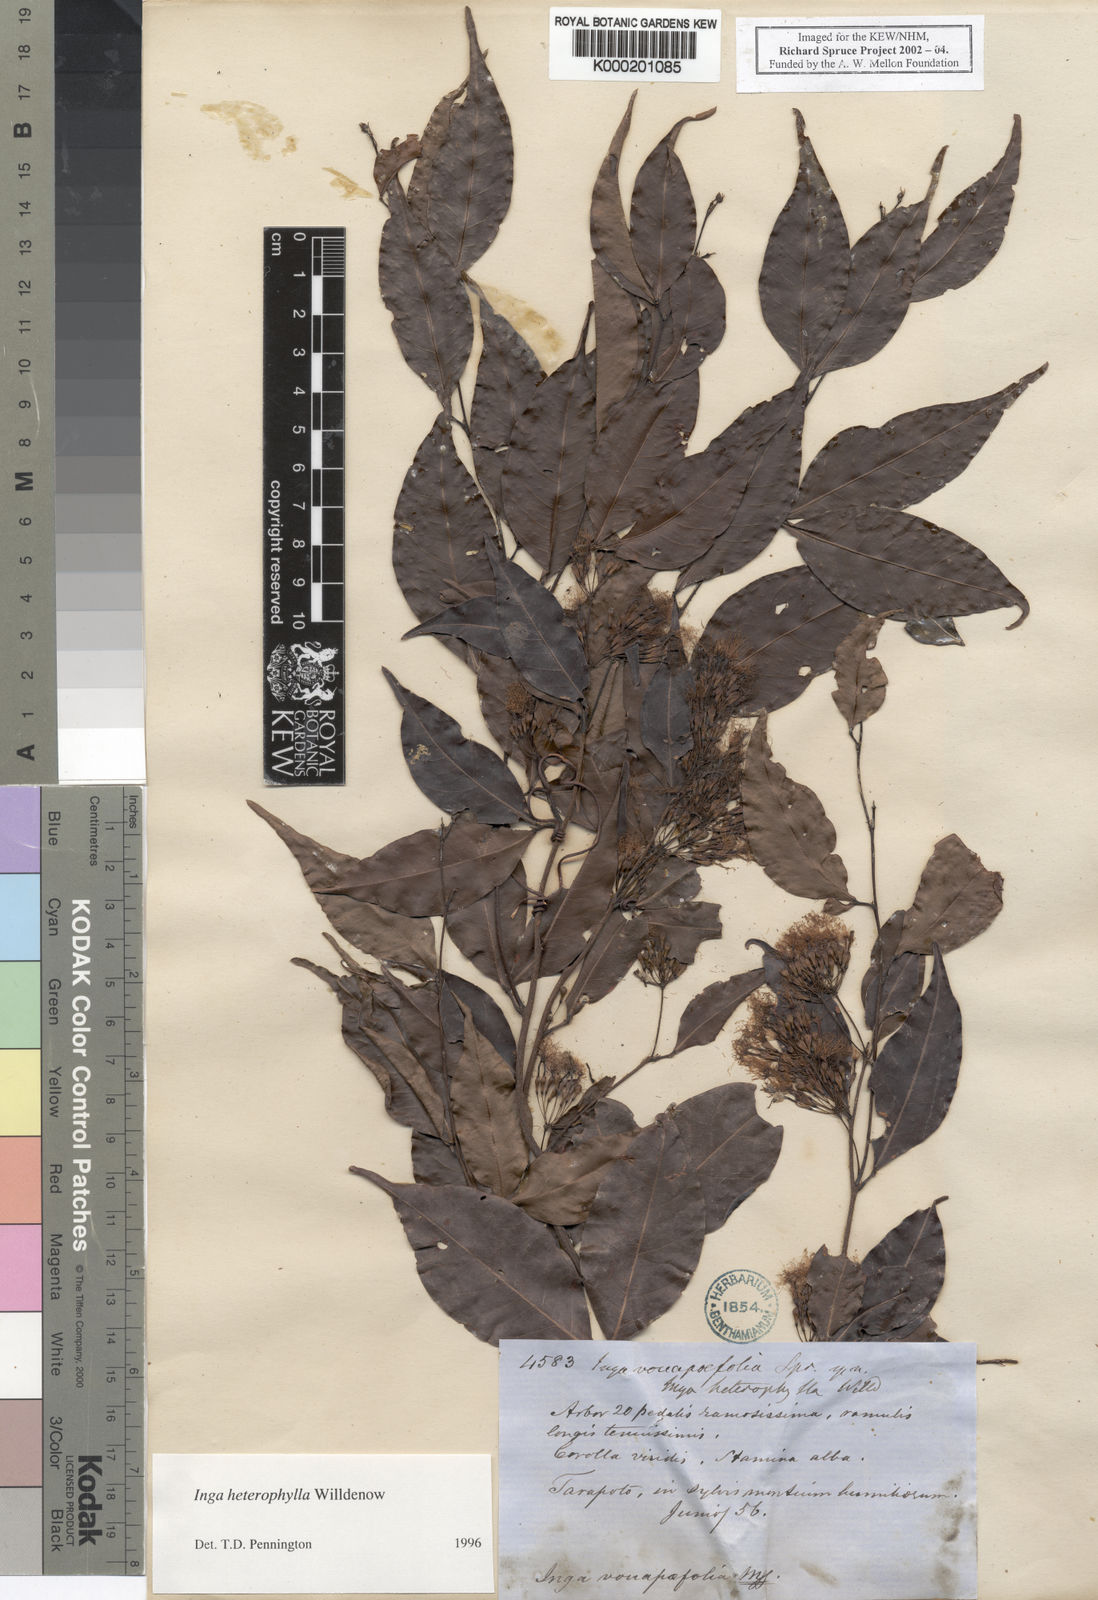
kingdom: Plantae
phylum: Tracheophyta
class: Magnoliopsida
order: Fabales
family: Fabaceae
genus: Inga
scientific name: Inga heterophylla
